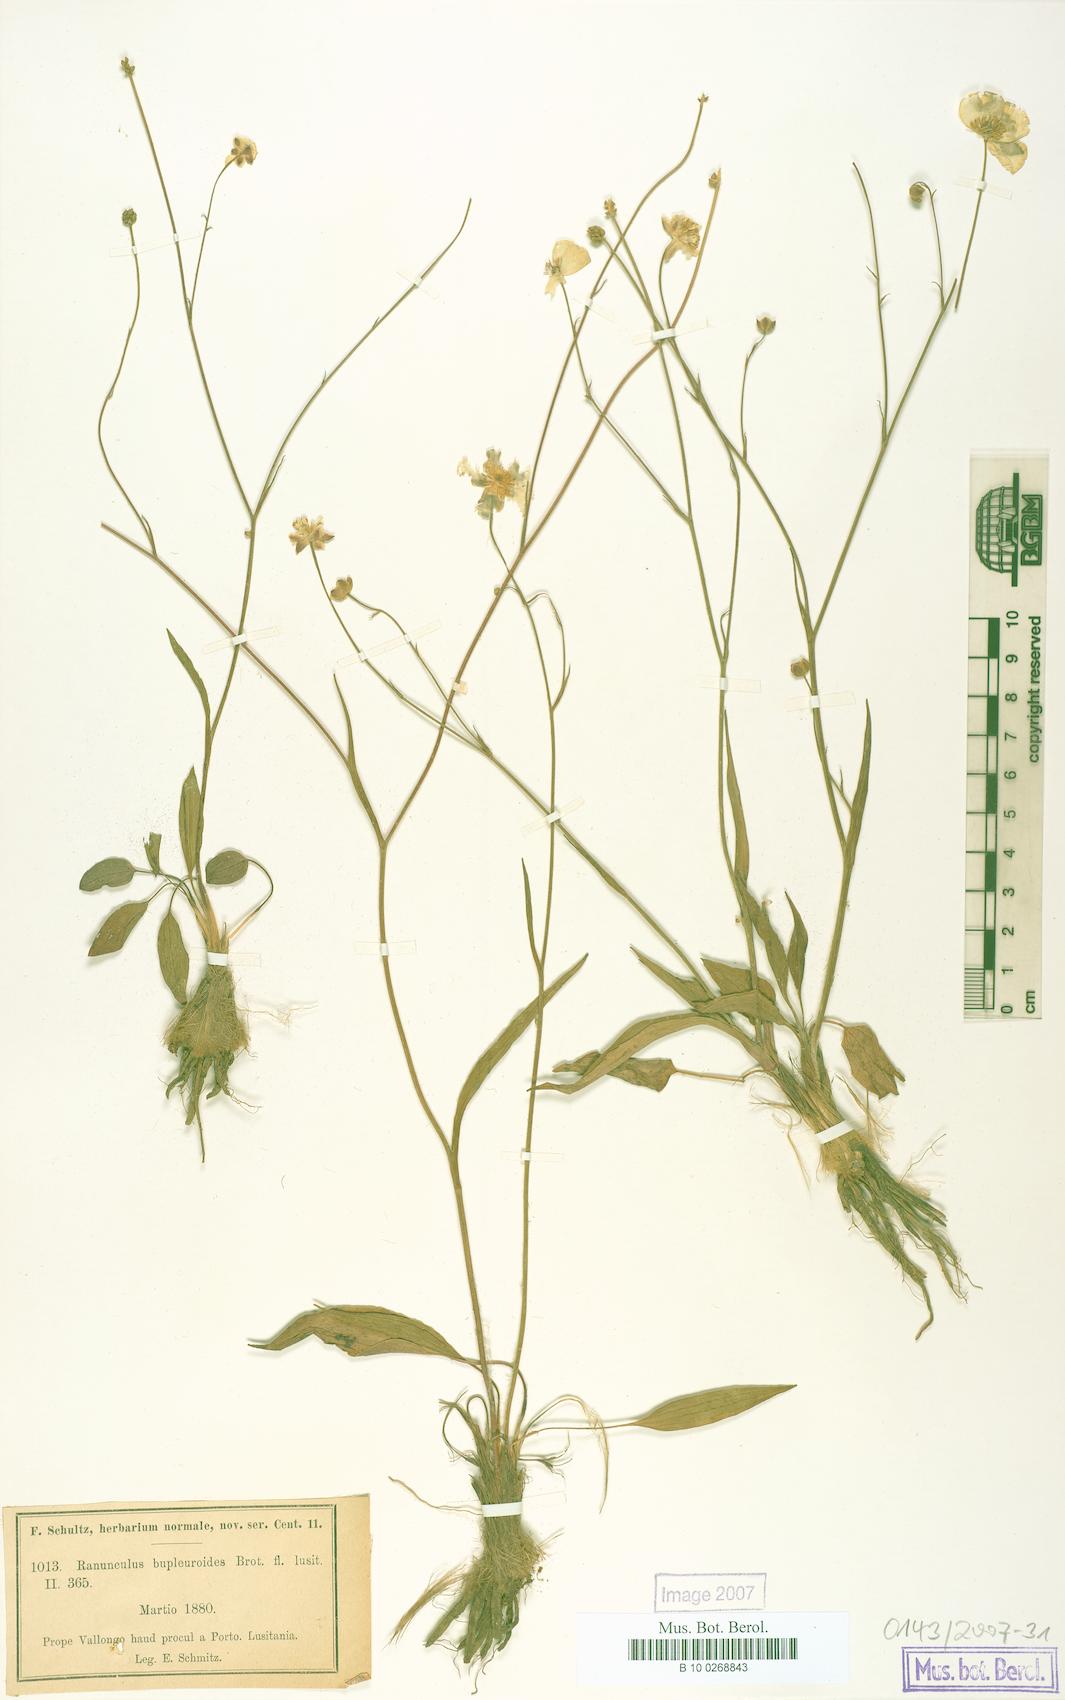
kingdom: Plantae
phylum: Tracheophyta
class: Magnoliopsida
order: Ranunculales
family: Ranunculaceae
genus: Ranunculus
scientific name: Ranunculus bupleuroides
